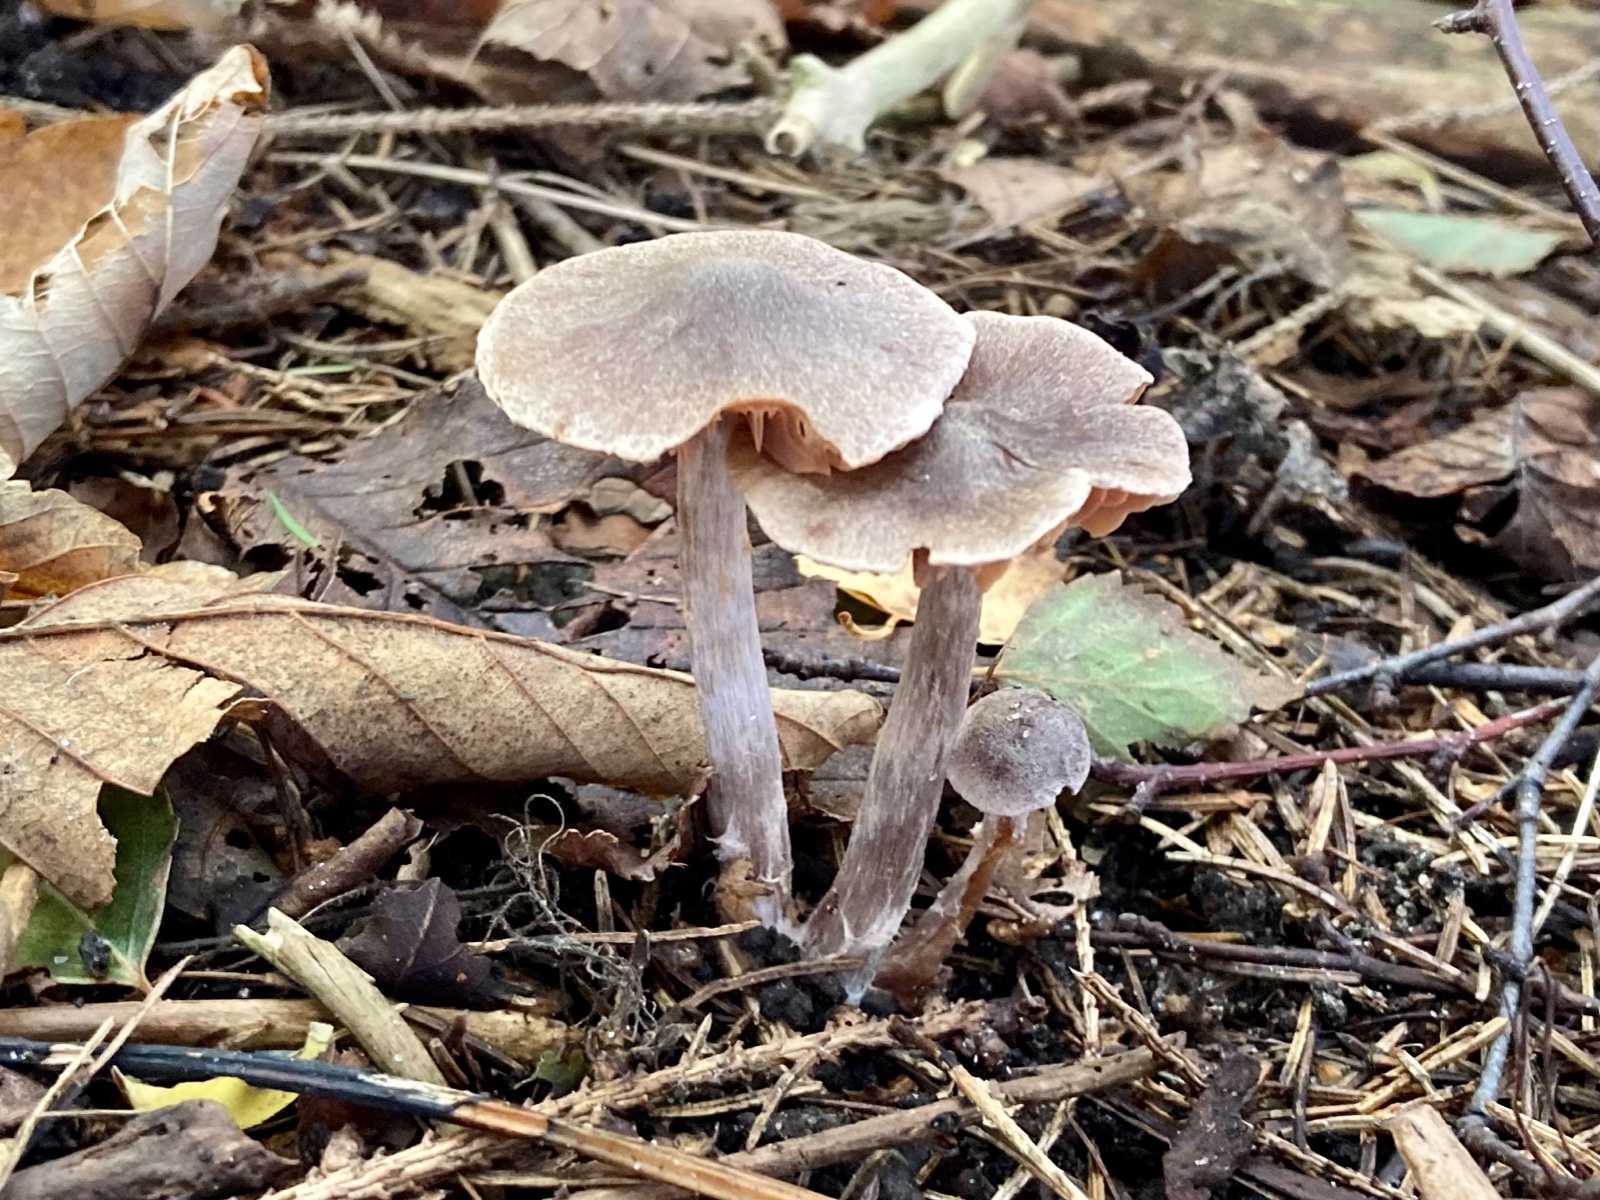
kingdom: Fungi
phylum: Basidiomycota
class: Agaricomycetes
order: Agaricales
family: Cortinariaceae
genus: Cortinarius
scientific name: Cortinarius hirtus
